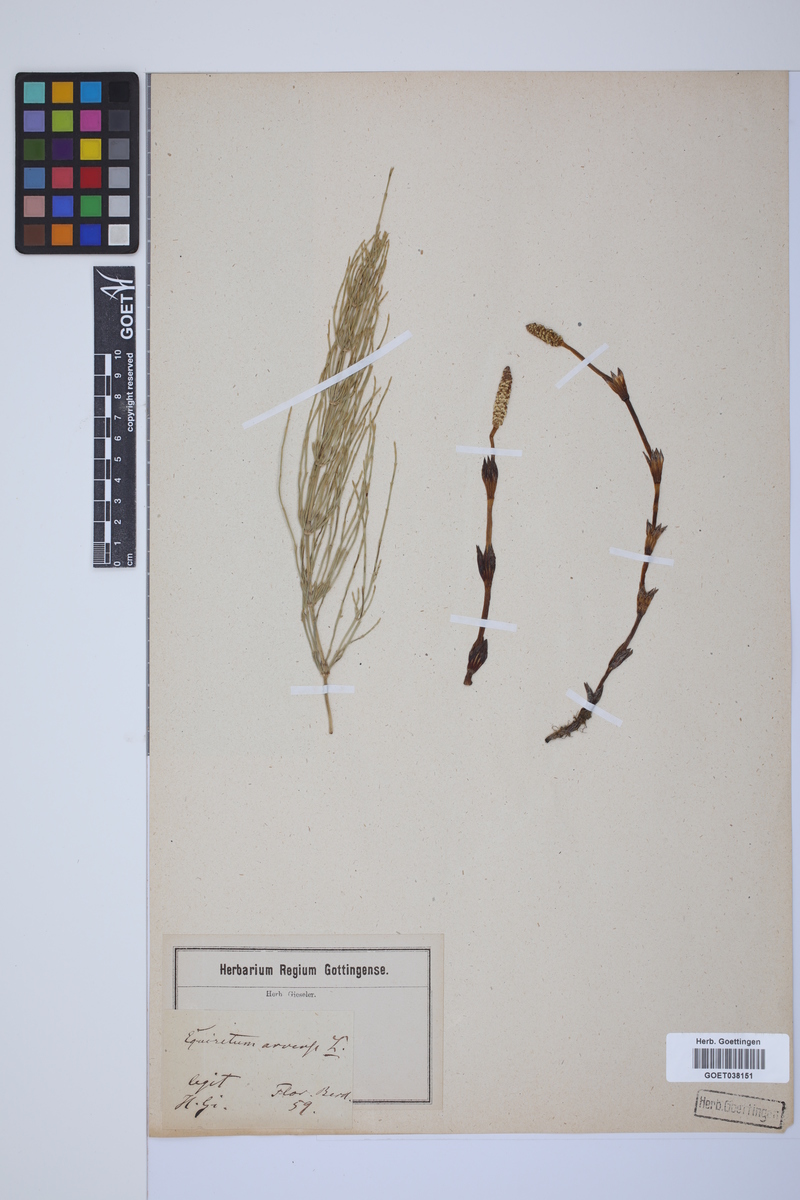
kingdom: Plantae
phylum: Tracheophyta
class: Polypodiopsida
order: Equisetales
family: Equisetaceae
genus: Equisetum
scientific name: Equisetum arvense
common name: Field horsetail
